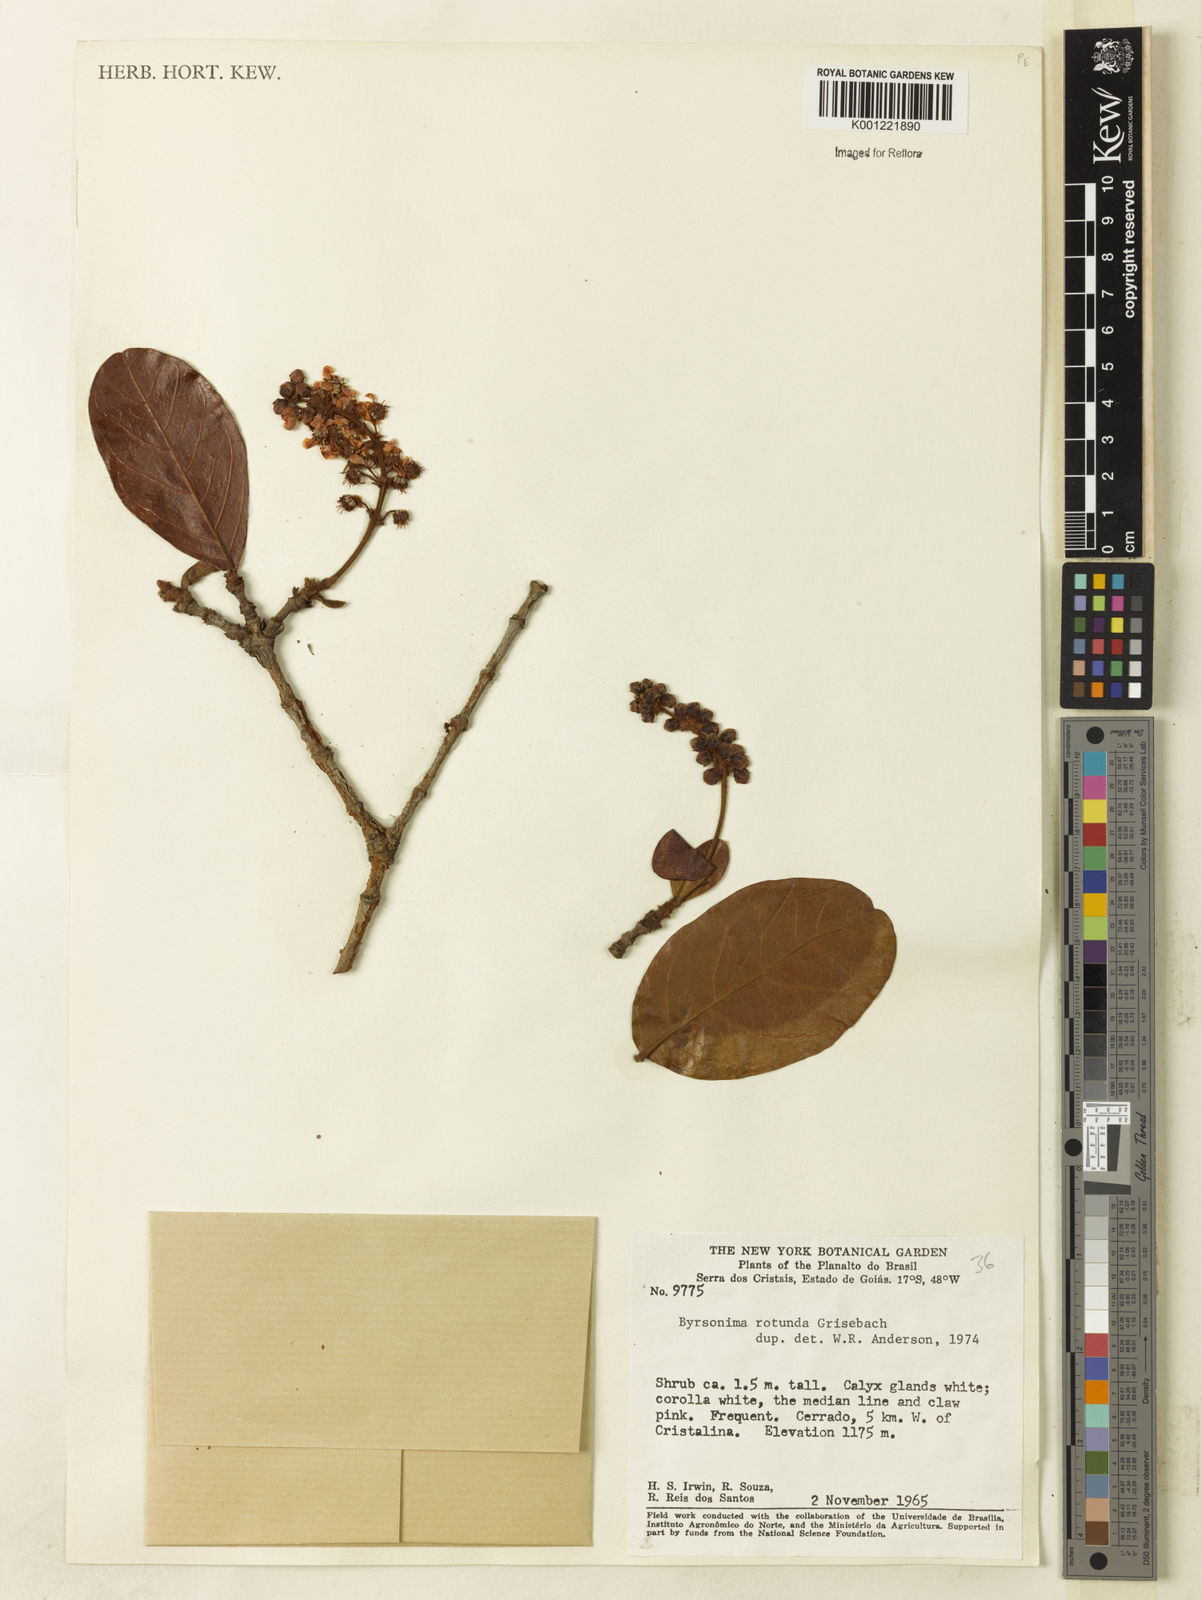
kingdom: Plantae
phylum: Tracheophyta
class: Magnoliopsida
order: Malpighiales
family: Malpighiaceae
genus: Byrsonima
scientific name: Byrsonima rotunda
